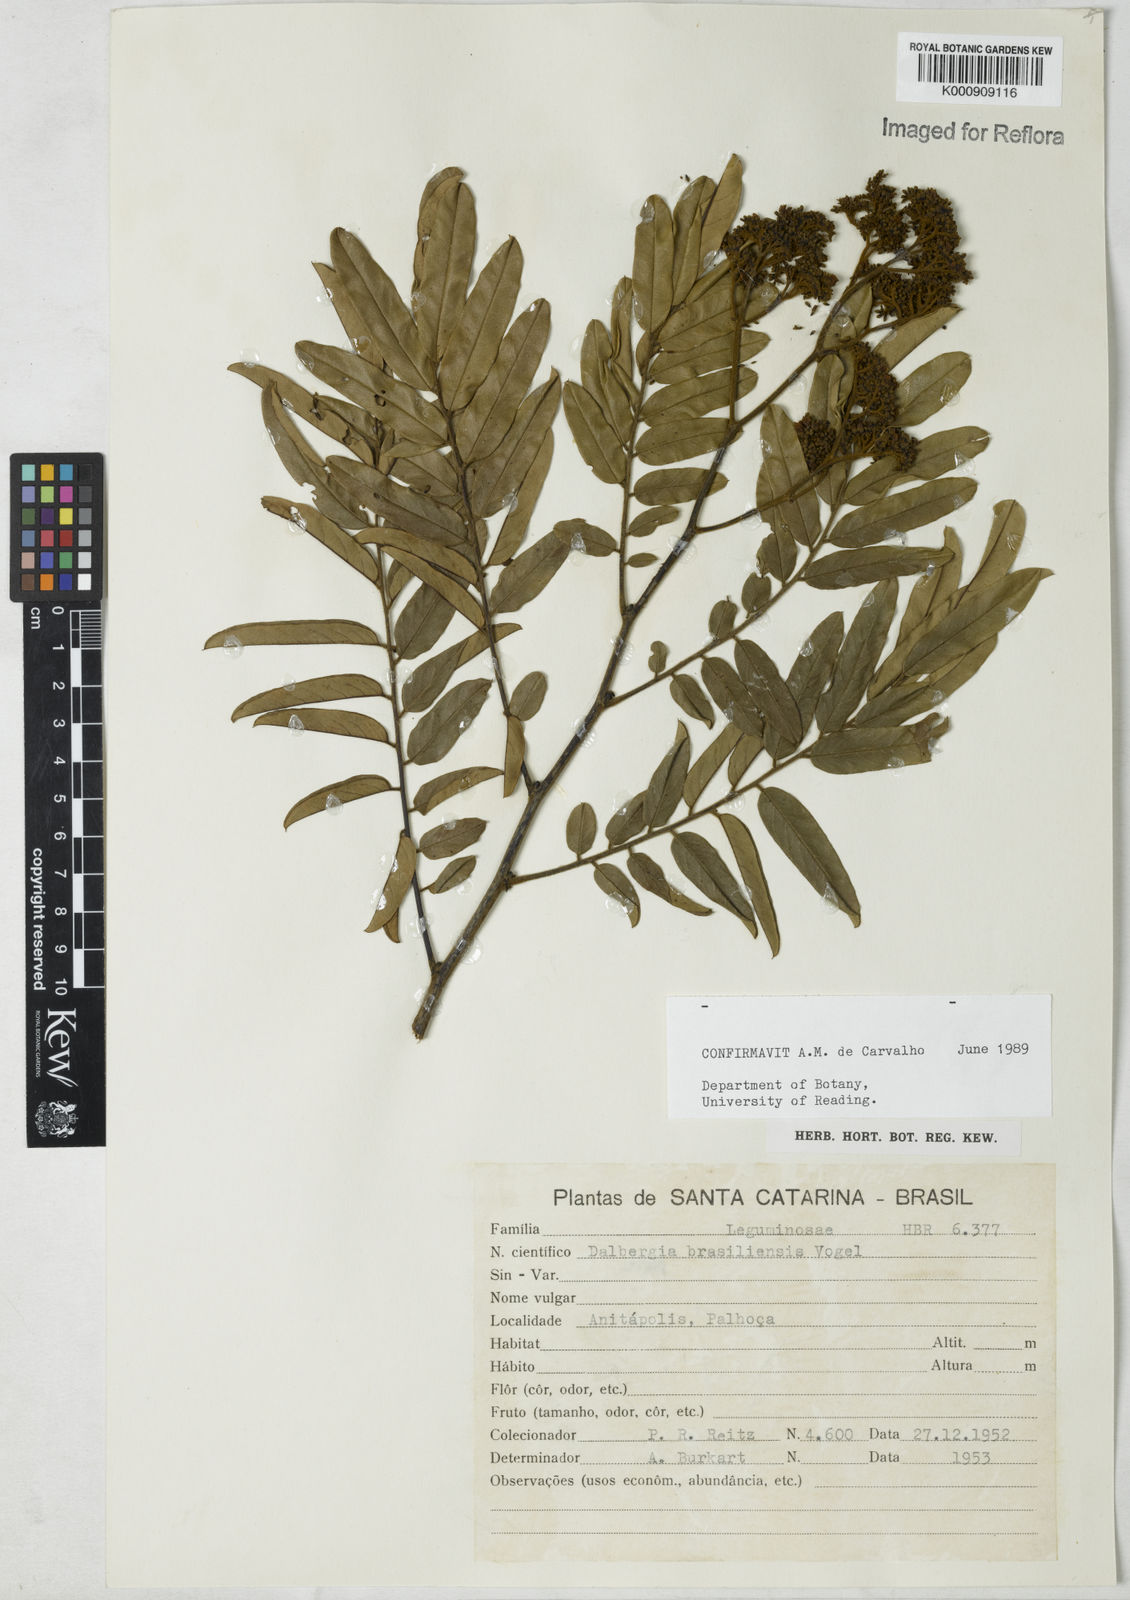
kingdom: Plantae
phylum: Tracheophyta
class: Magnoliopsida
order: Fabales
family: Fabaceae
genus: Dalbergia
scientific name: Dalbergia brasiliensis
